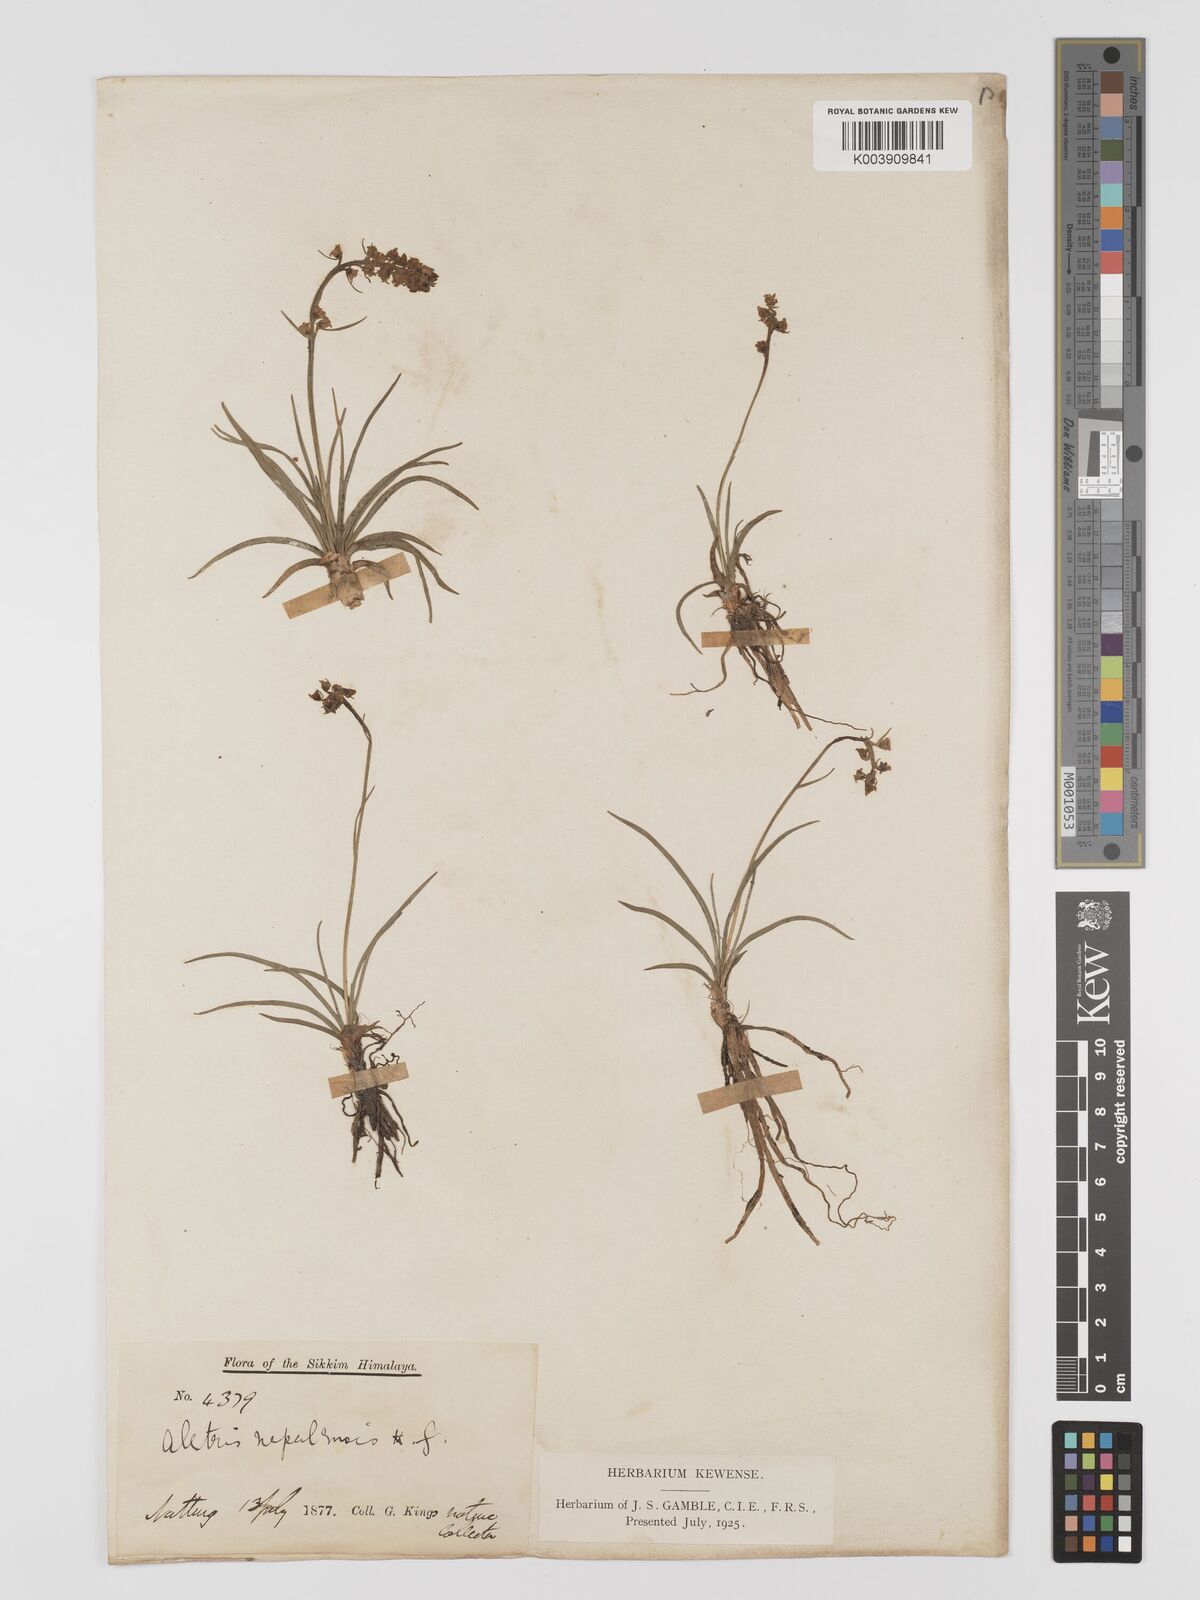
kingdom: Plantae
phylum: Tracheophyta
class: Liliopsida
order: Dioscoreales
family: Nartheciaceae
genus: Aletris
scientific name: Aletris pauciflora
